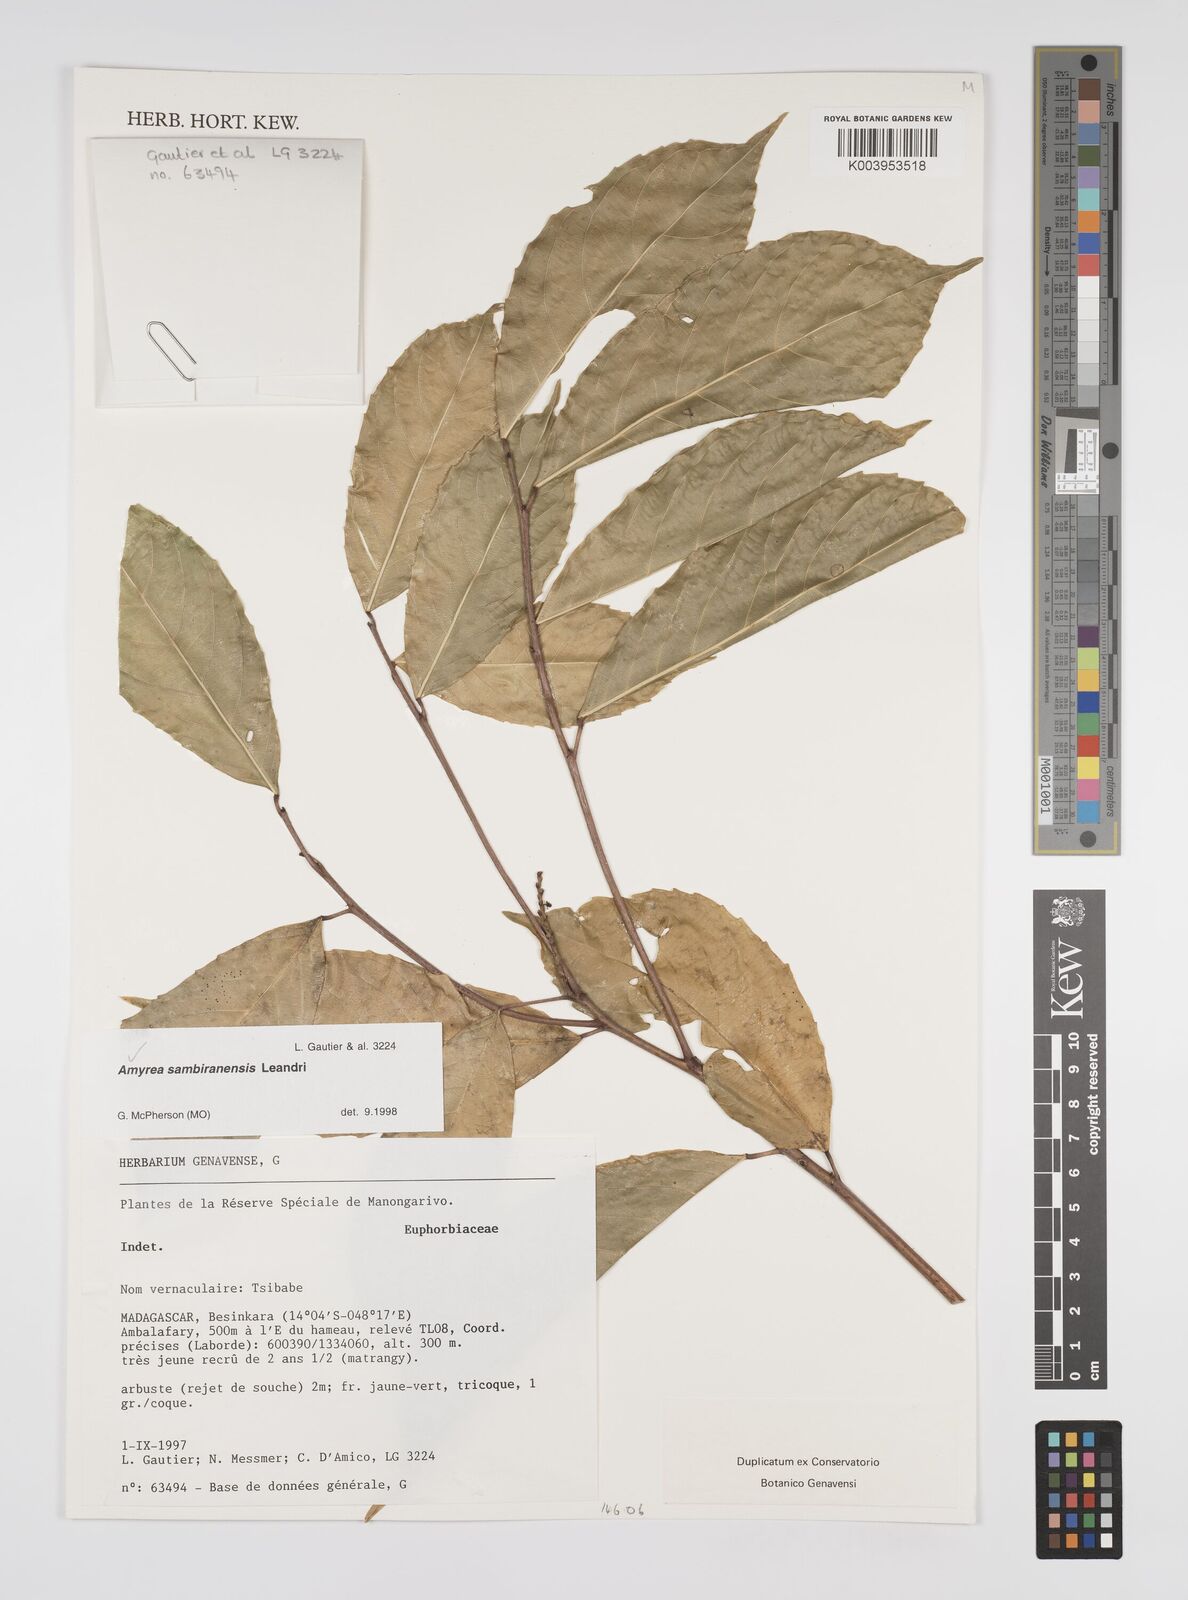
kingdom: Plantae
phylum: Tracheophyta
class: Magnoliopsida
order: Malpighiales
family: Euphorbiaceae
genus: Amyrea
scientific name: Amyrea sambiranensis
